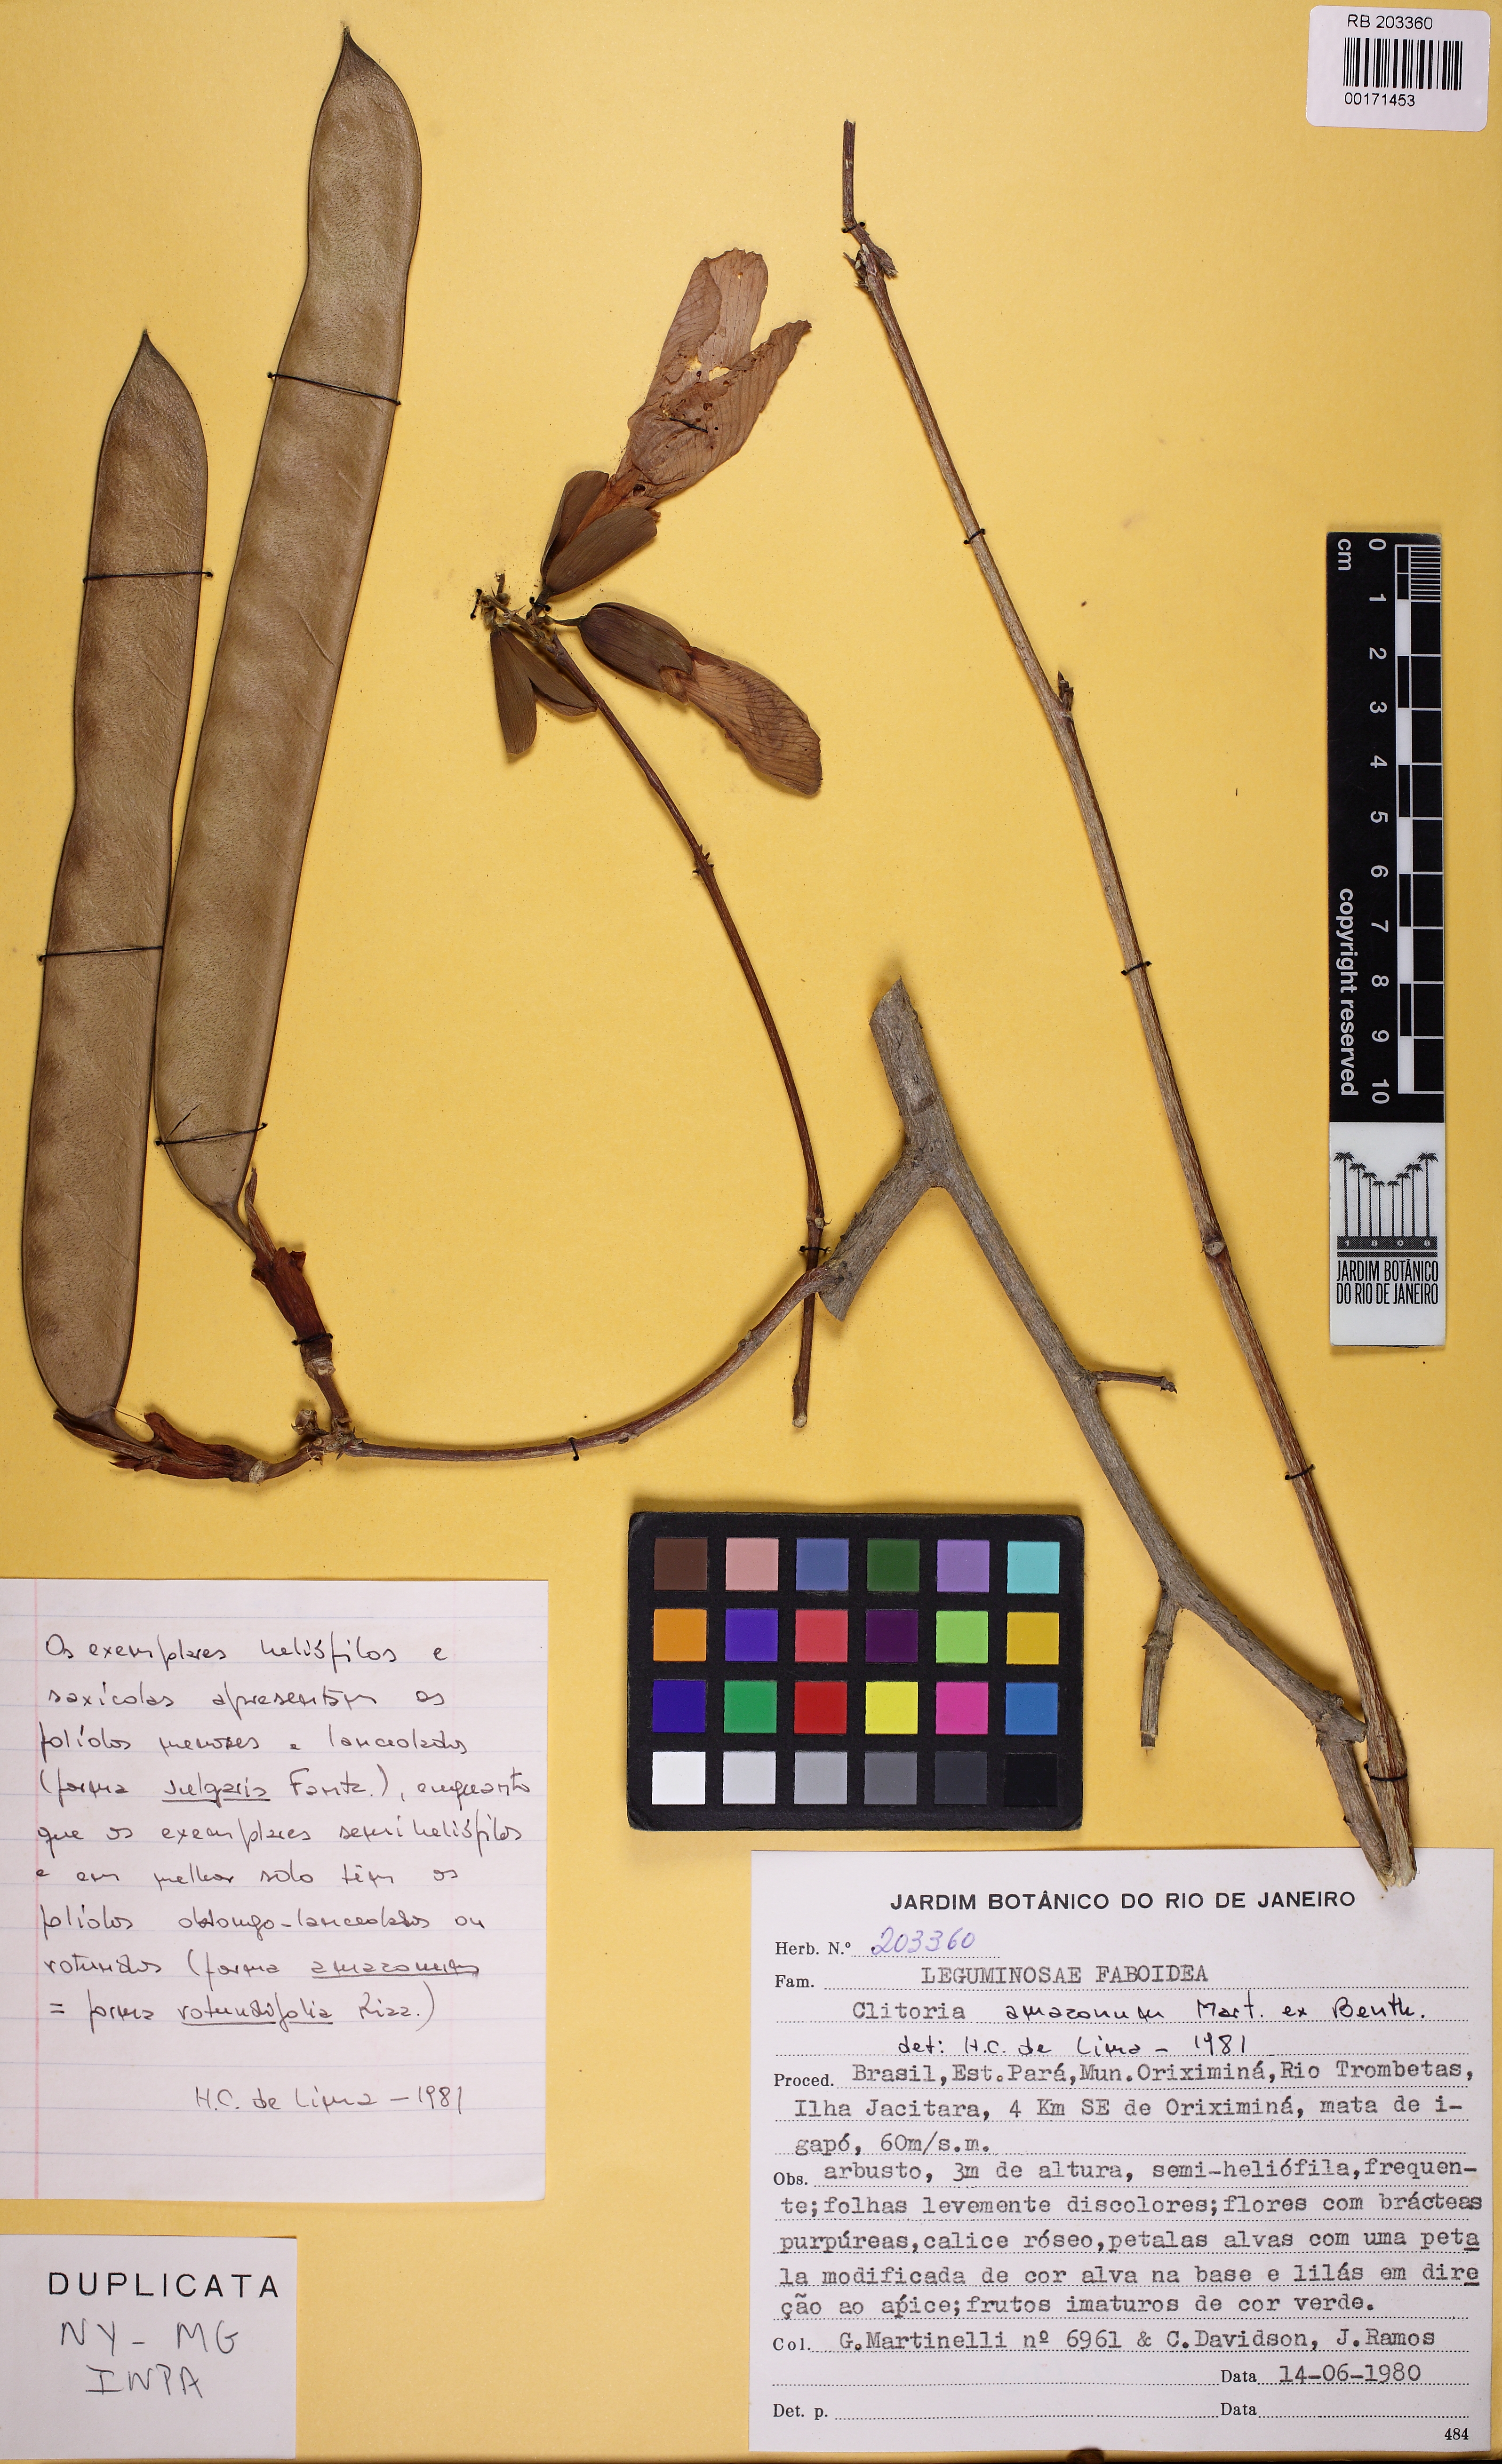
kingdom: Plantae
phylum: Tracheophyta
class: Magnoliopsida
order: Fabales
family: Fabaceae
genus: Clitoria
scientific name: Clitoria amazonum
